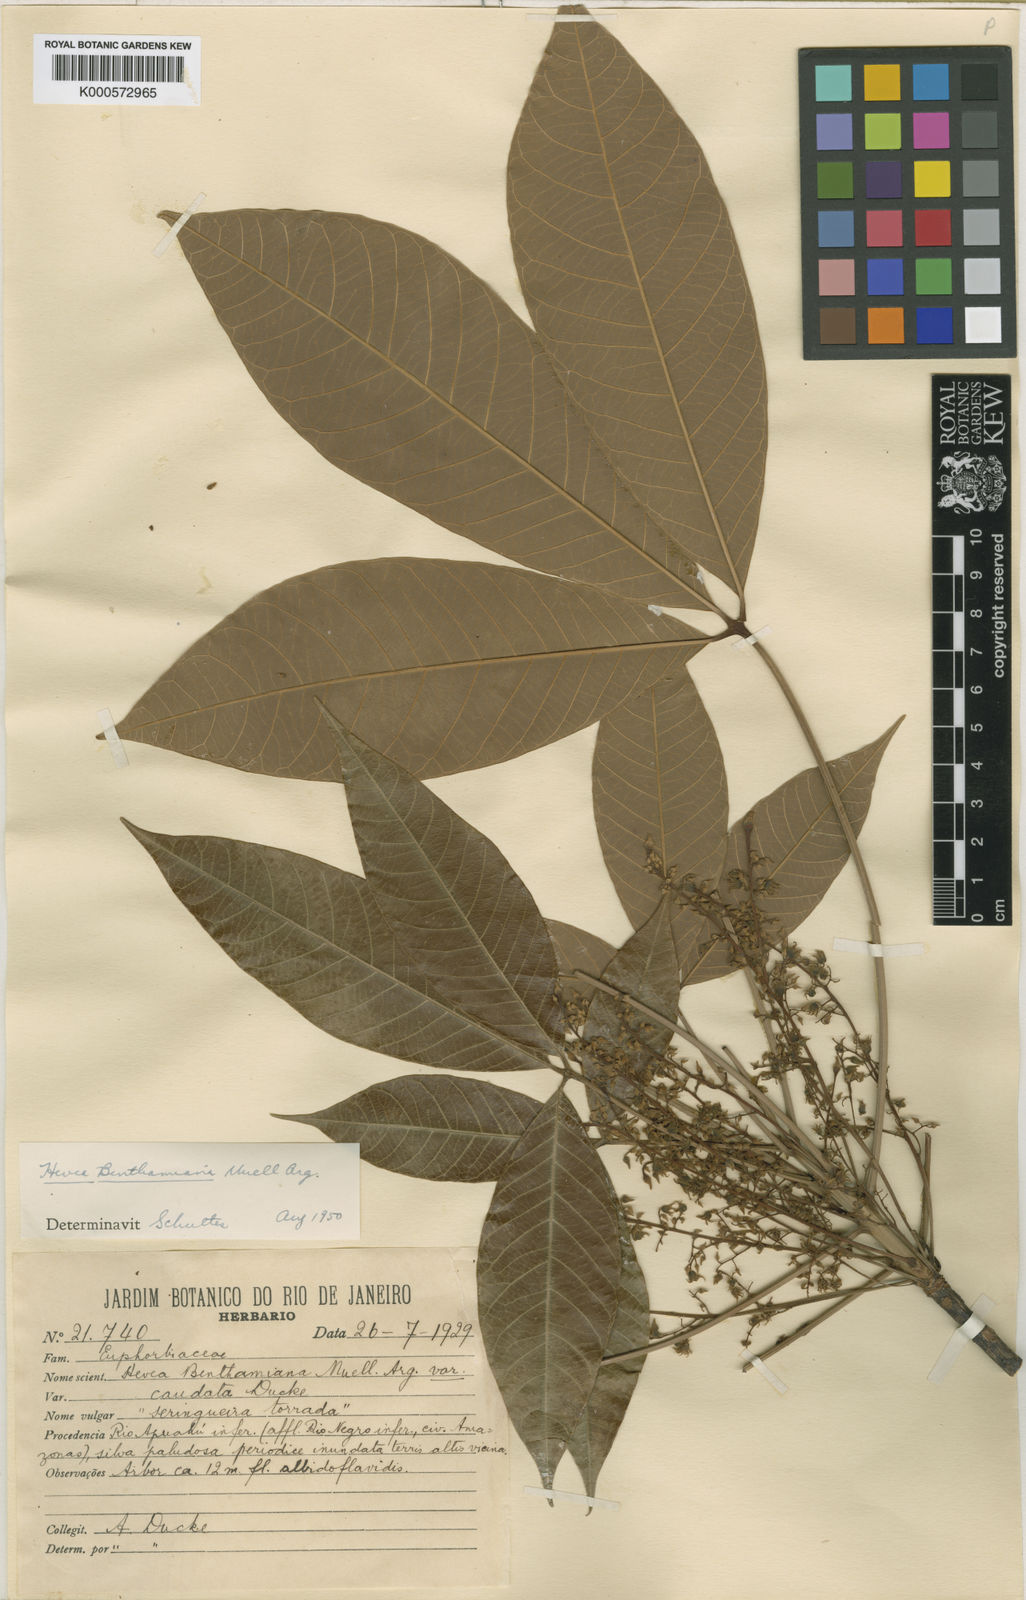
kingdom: Plantae
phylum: Tracheophyta
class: Magnoliopsida
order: Malpighiales
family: Euphorbiaceae
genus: Hevea
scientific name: Hevea benthamiana
